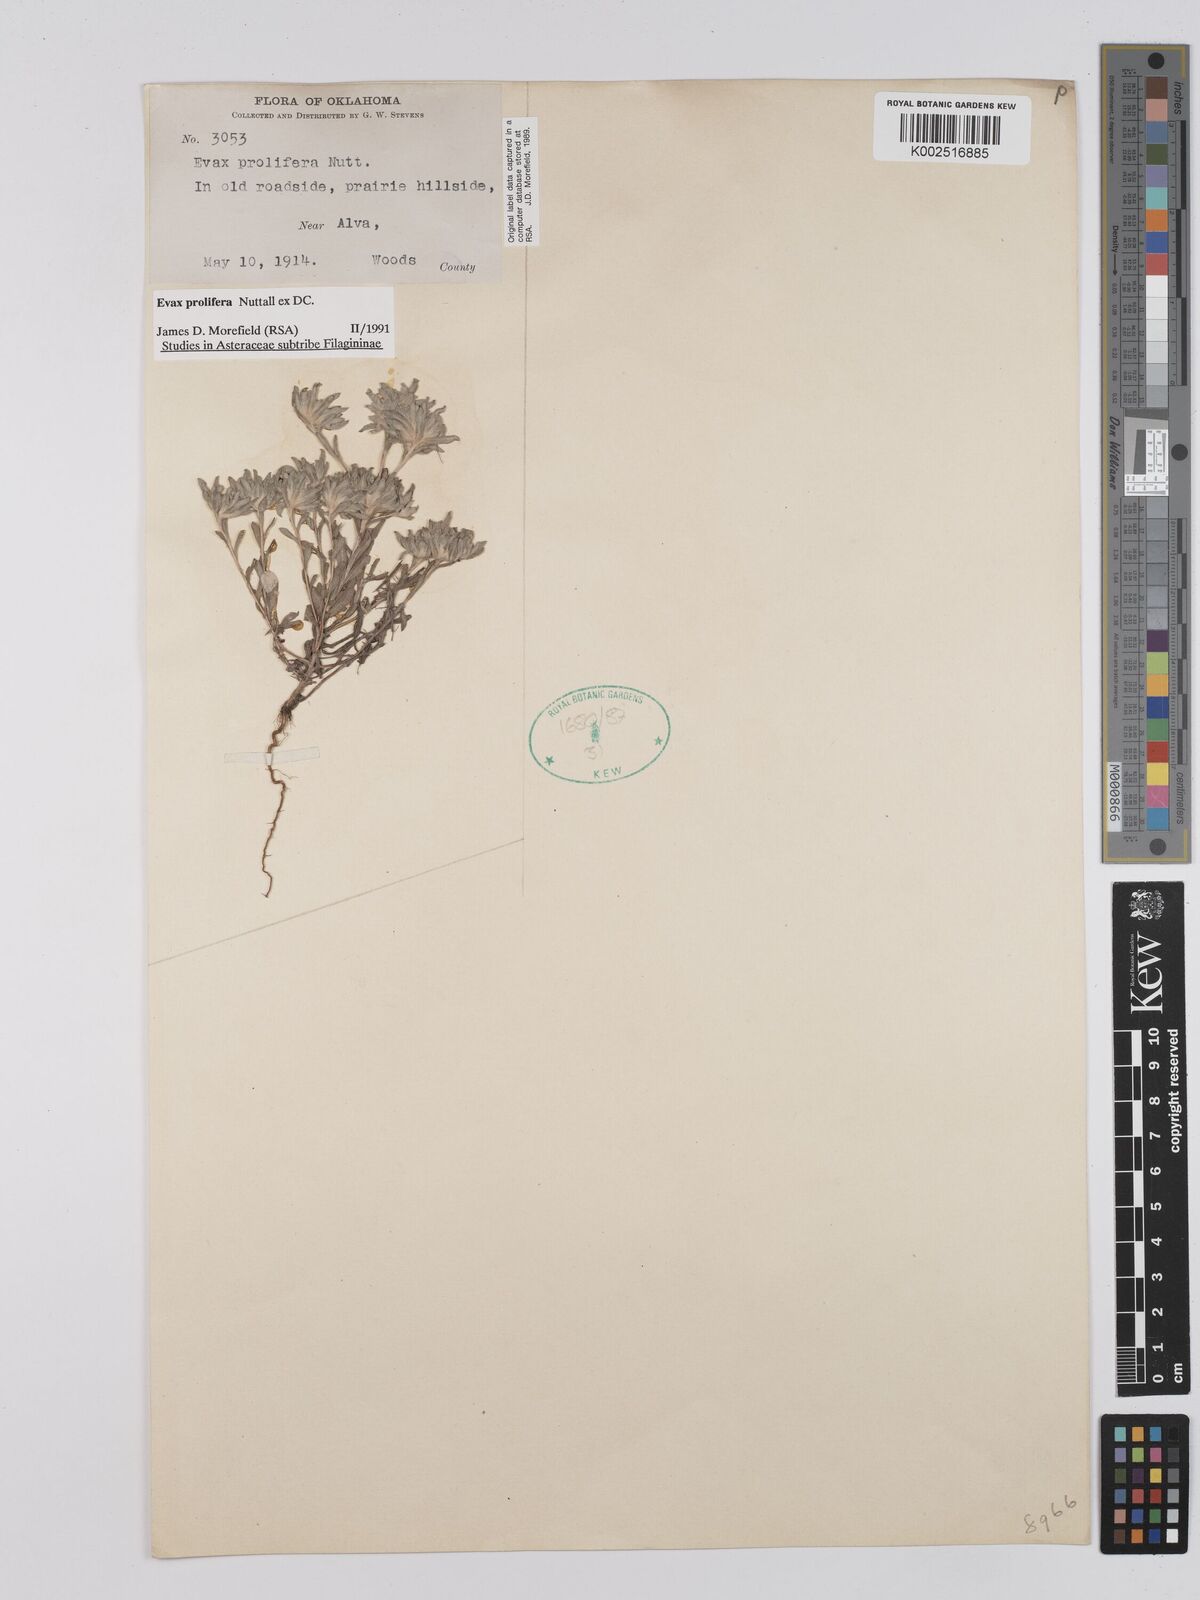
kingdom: Plantae
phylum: Tracheophyta
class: Magnoliopsida
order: Asterales
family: Asteraceae
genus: Diaperia
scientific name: Diaperia prolifera
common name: Big-head rabbit-tobacco
